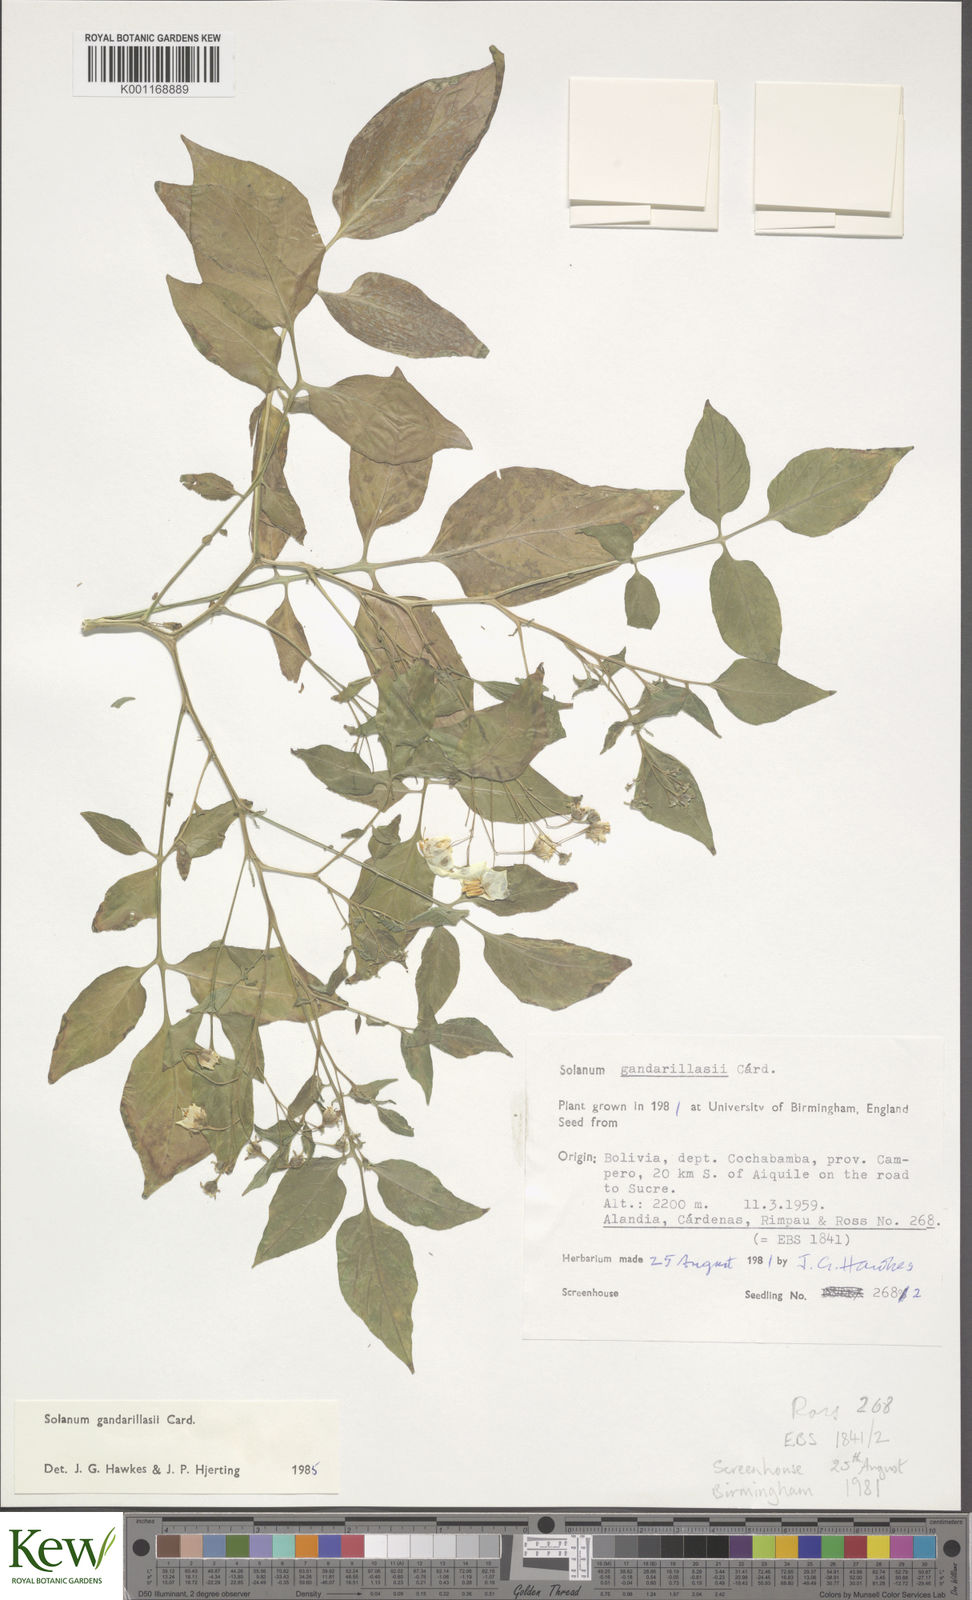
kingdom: Plantae
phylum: Tracheophyta
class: Magnoliopsida
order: Solanales
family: Solanaceae
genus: Solanum
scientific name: Solanum
